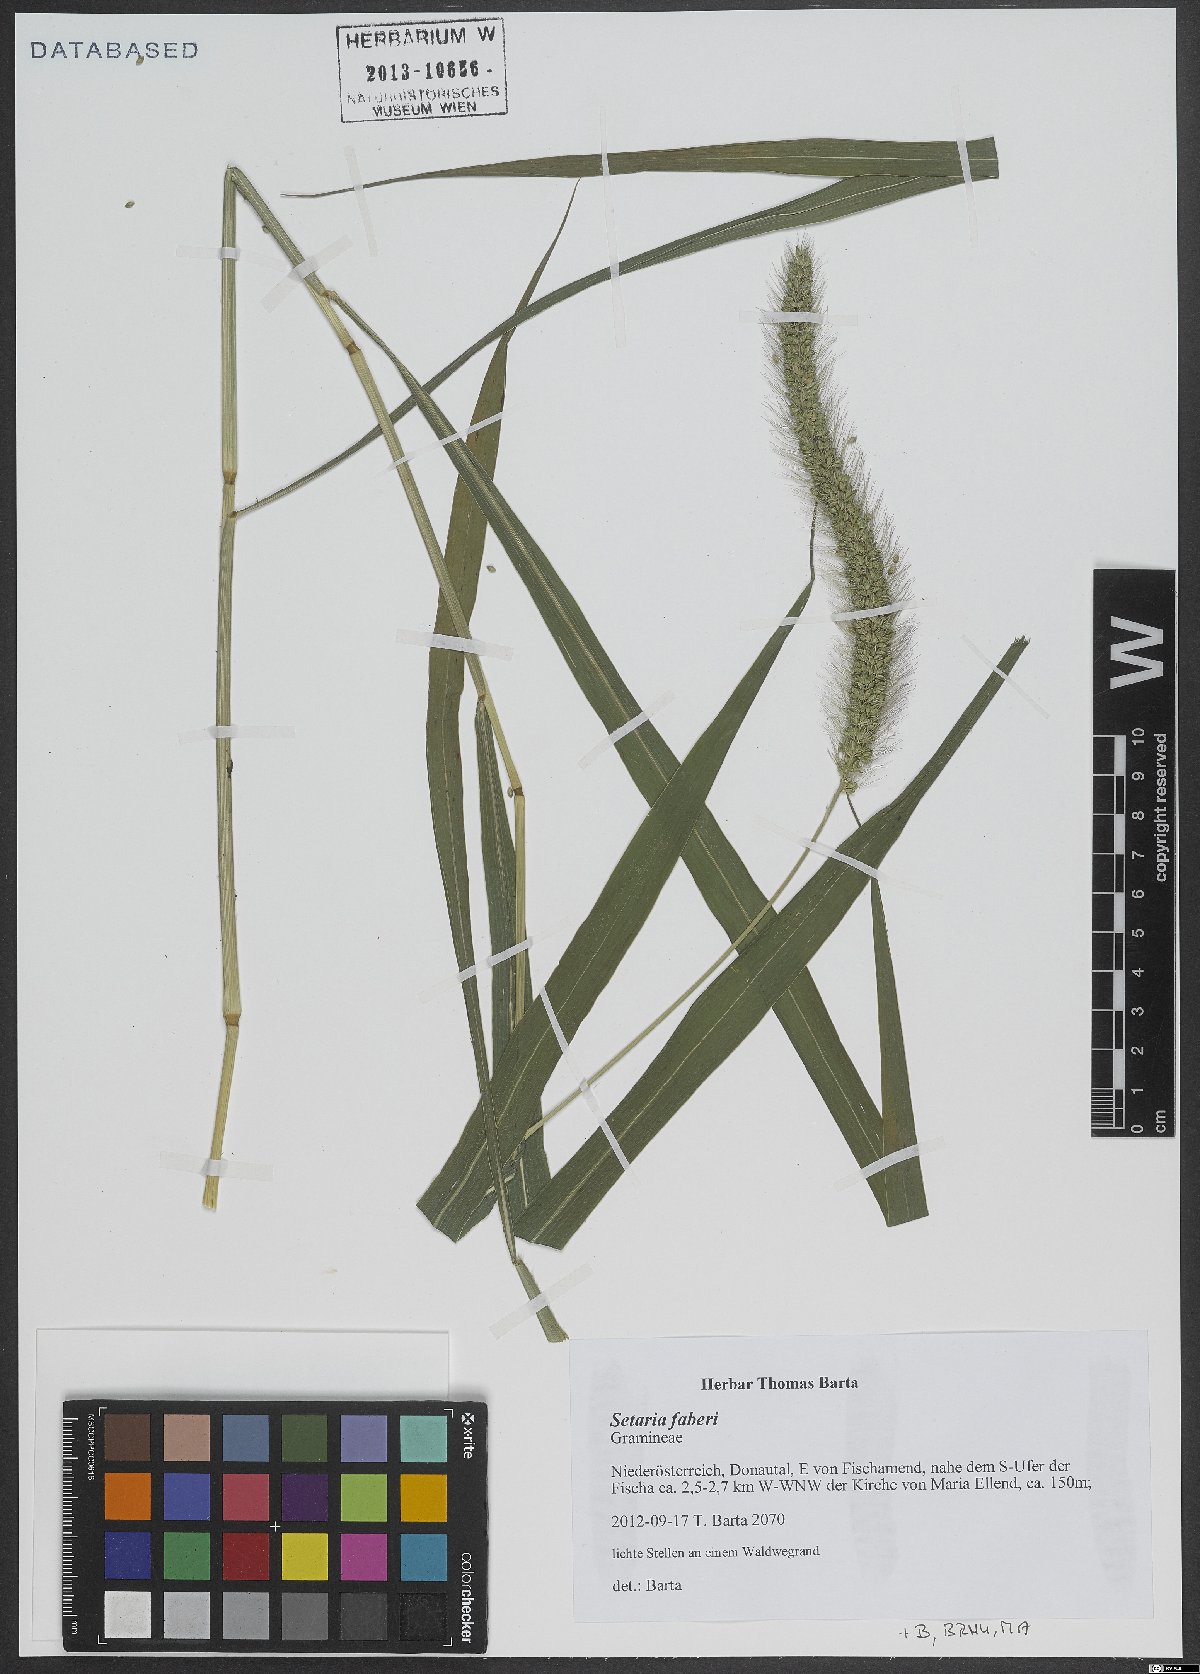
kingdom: Plantae
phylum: Tracheophyta
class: Liliopsida
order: Poales
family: Poaceae
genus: Setaria
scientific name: Setaria faberi
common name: Nodding bristle-grass
